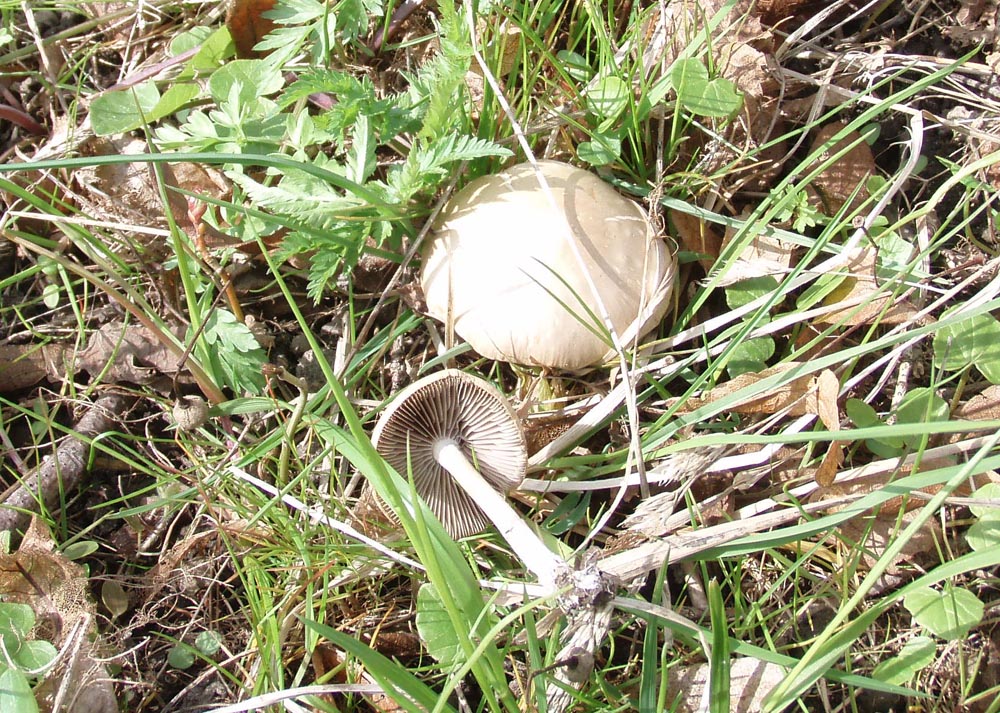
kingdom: Fungi
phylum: Basidiomycota
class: Agaricomycetes
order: Agaricales
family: Psathyrellaceae
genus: Psathyrella
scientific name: Psathyrella spadiceogrisea
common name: gråbrun mørkhat
